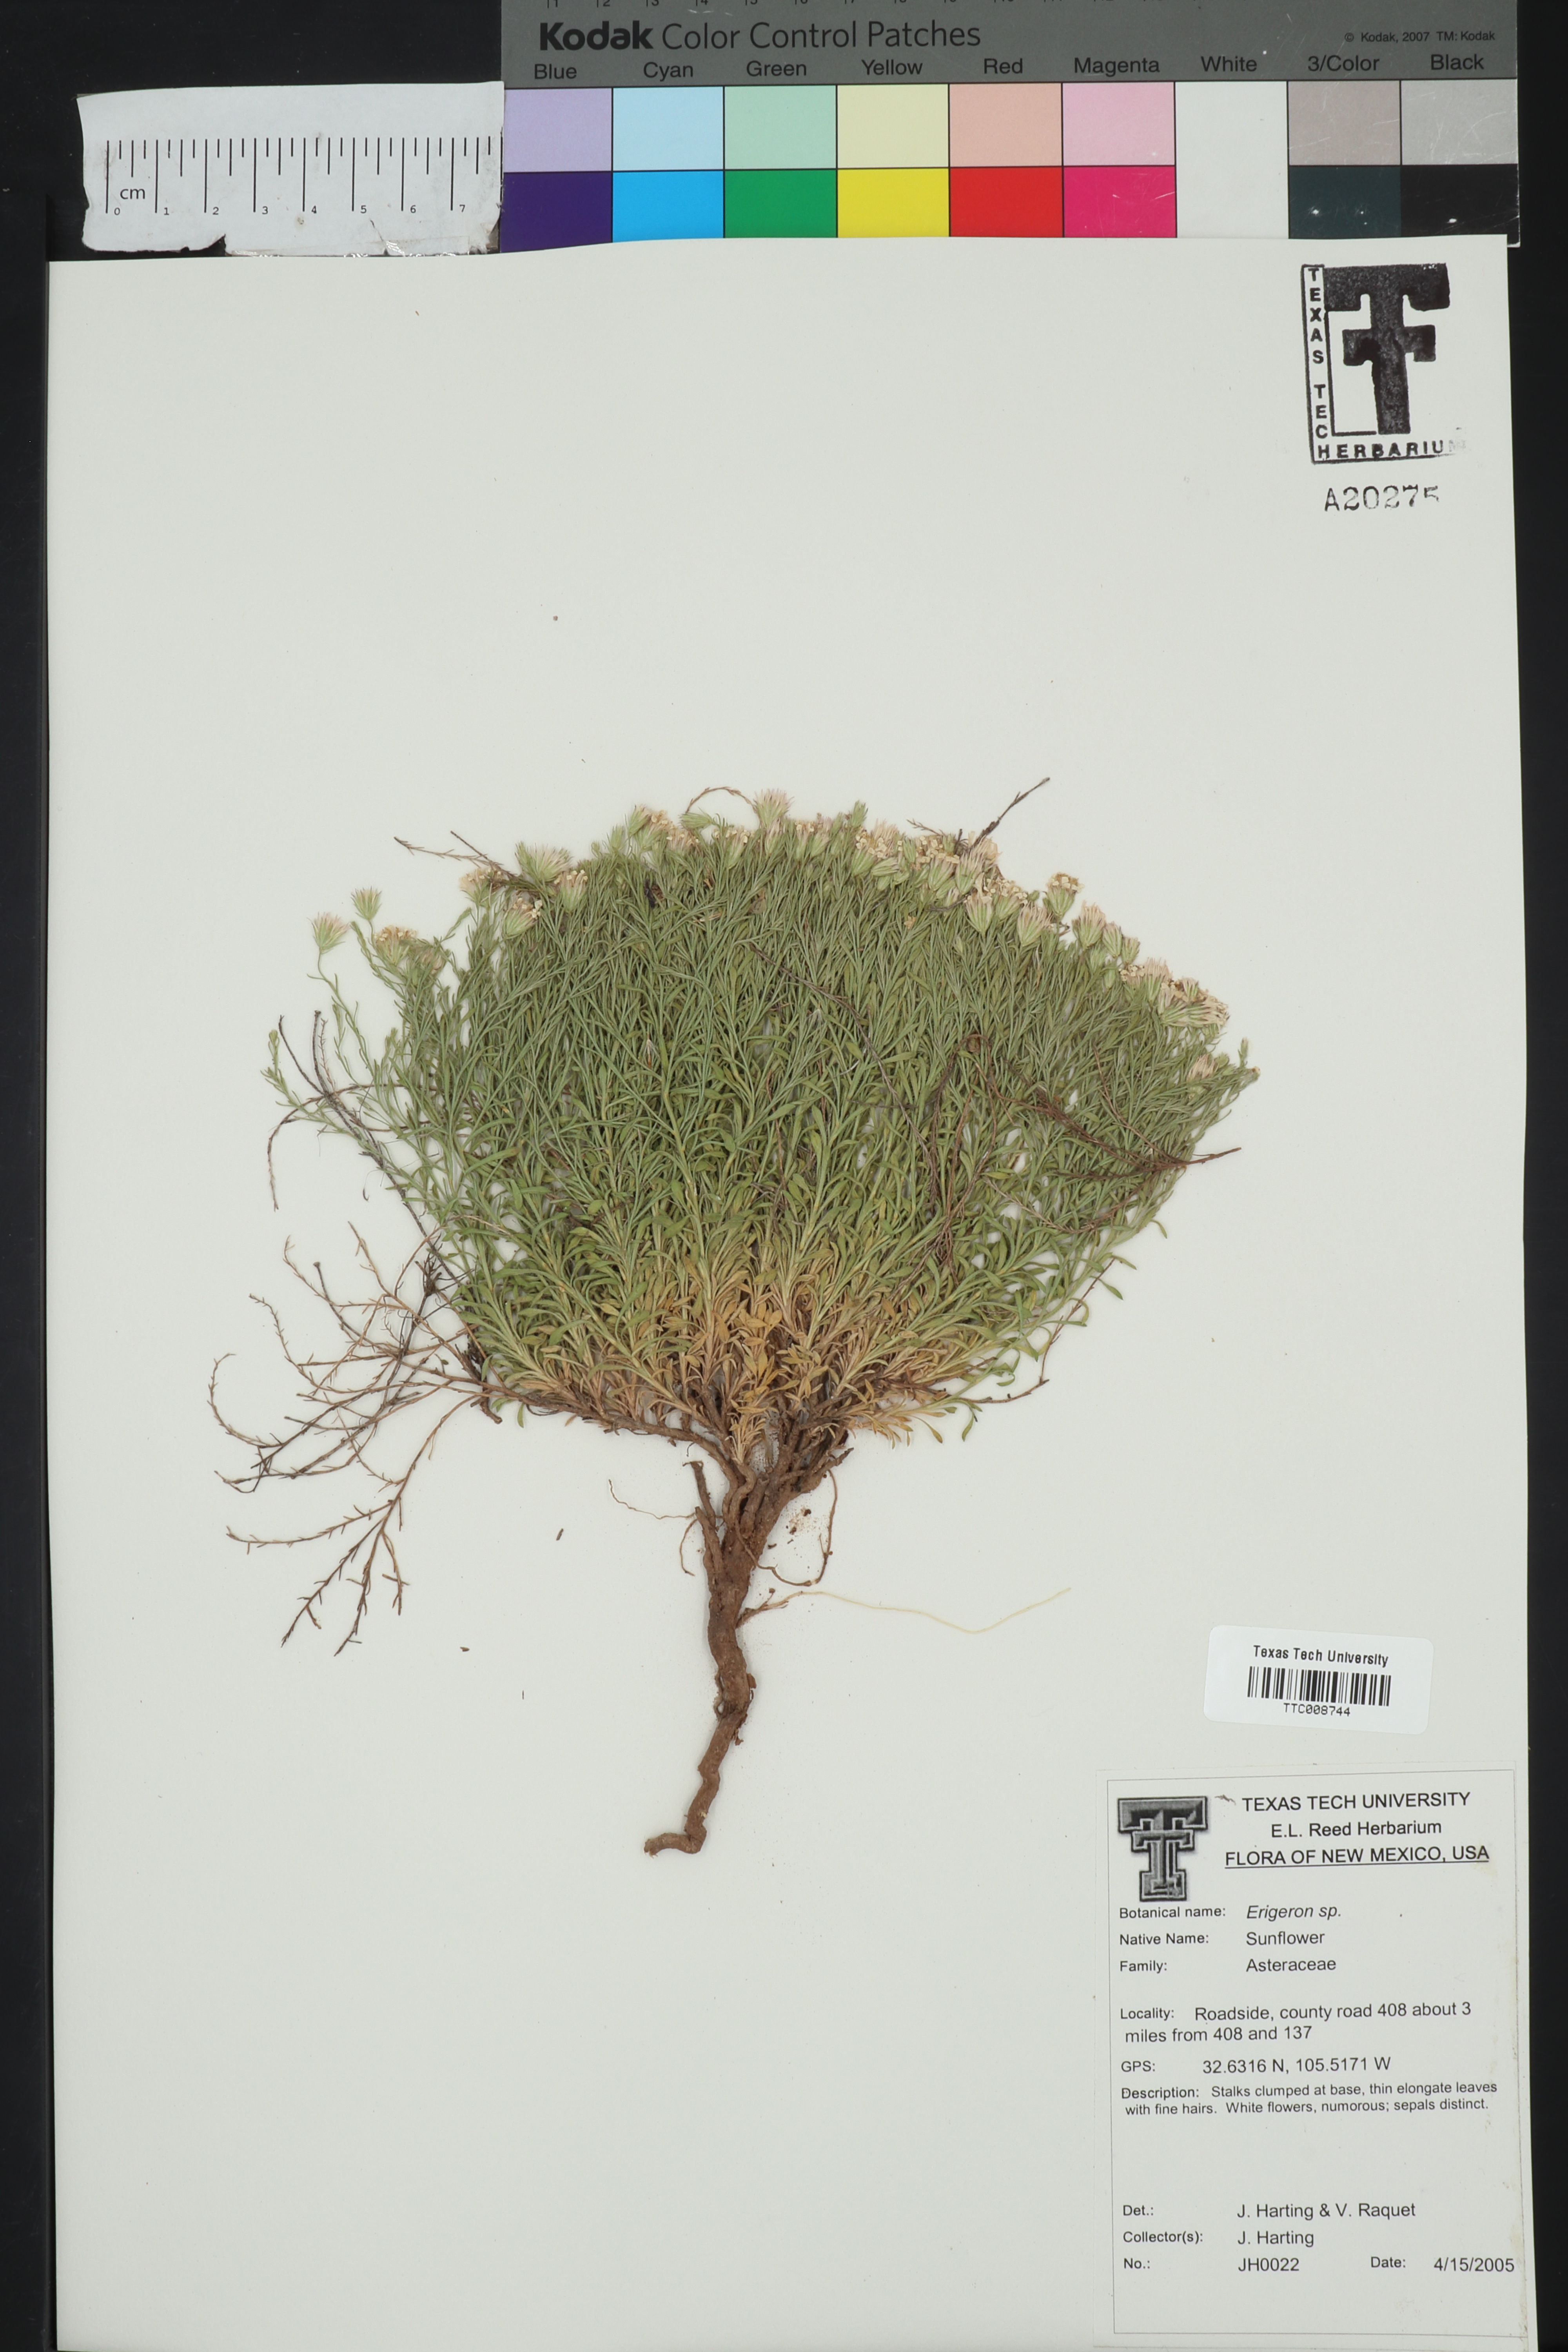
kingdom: Plantae
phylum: Tracheophyta
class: Magnoliopsida
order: Asterales
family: Asteraceae
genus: Erigeron
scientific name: Erigeron
